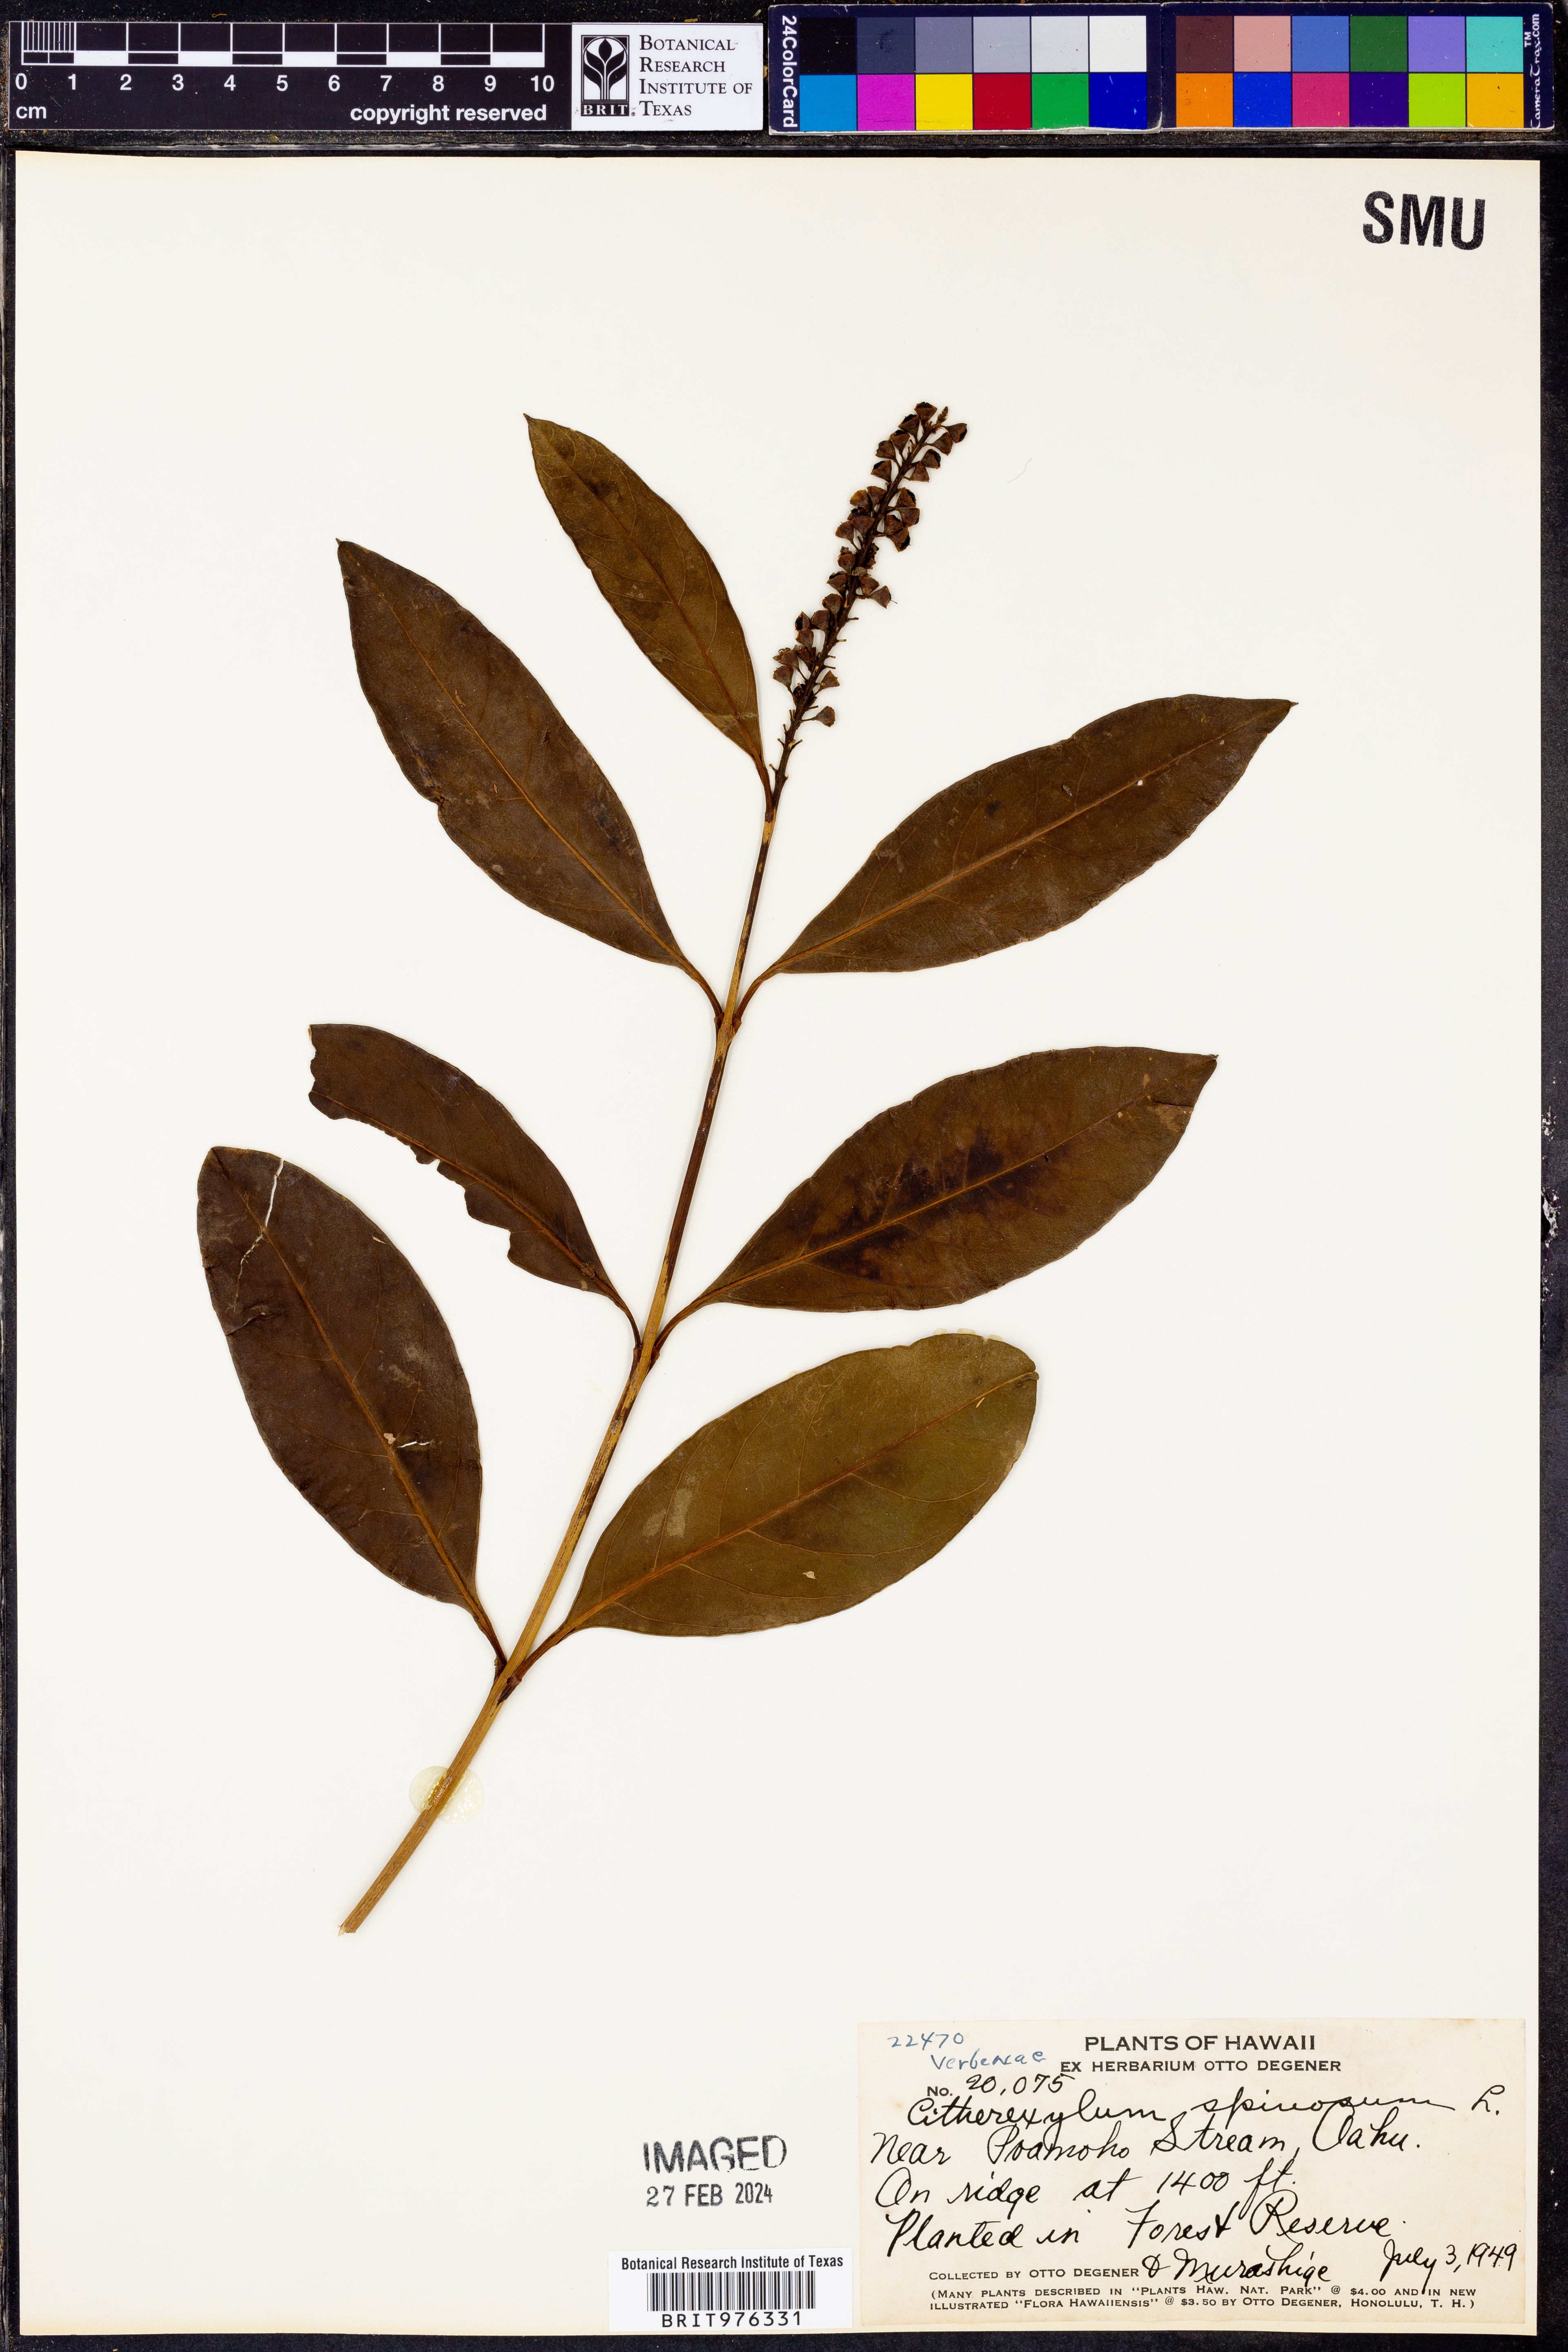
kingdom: Plantae
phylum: Tracheophyta
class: Magnoliopsida
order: Lamiales
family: Verbenaceae
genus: Citharexylum
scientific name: Citharexylum
